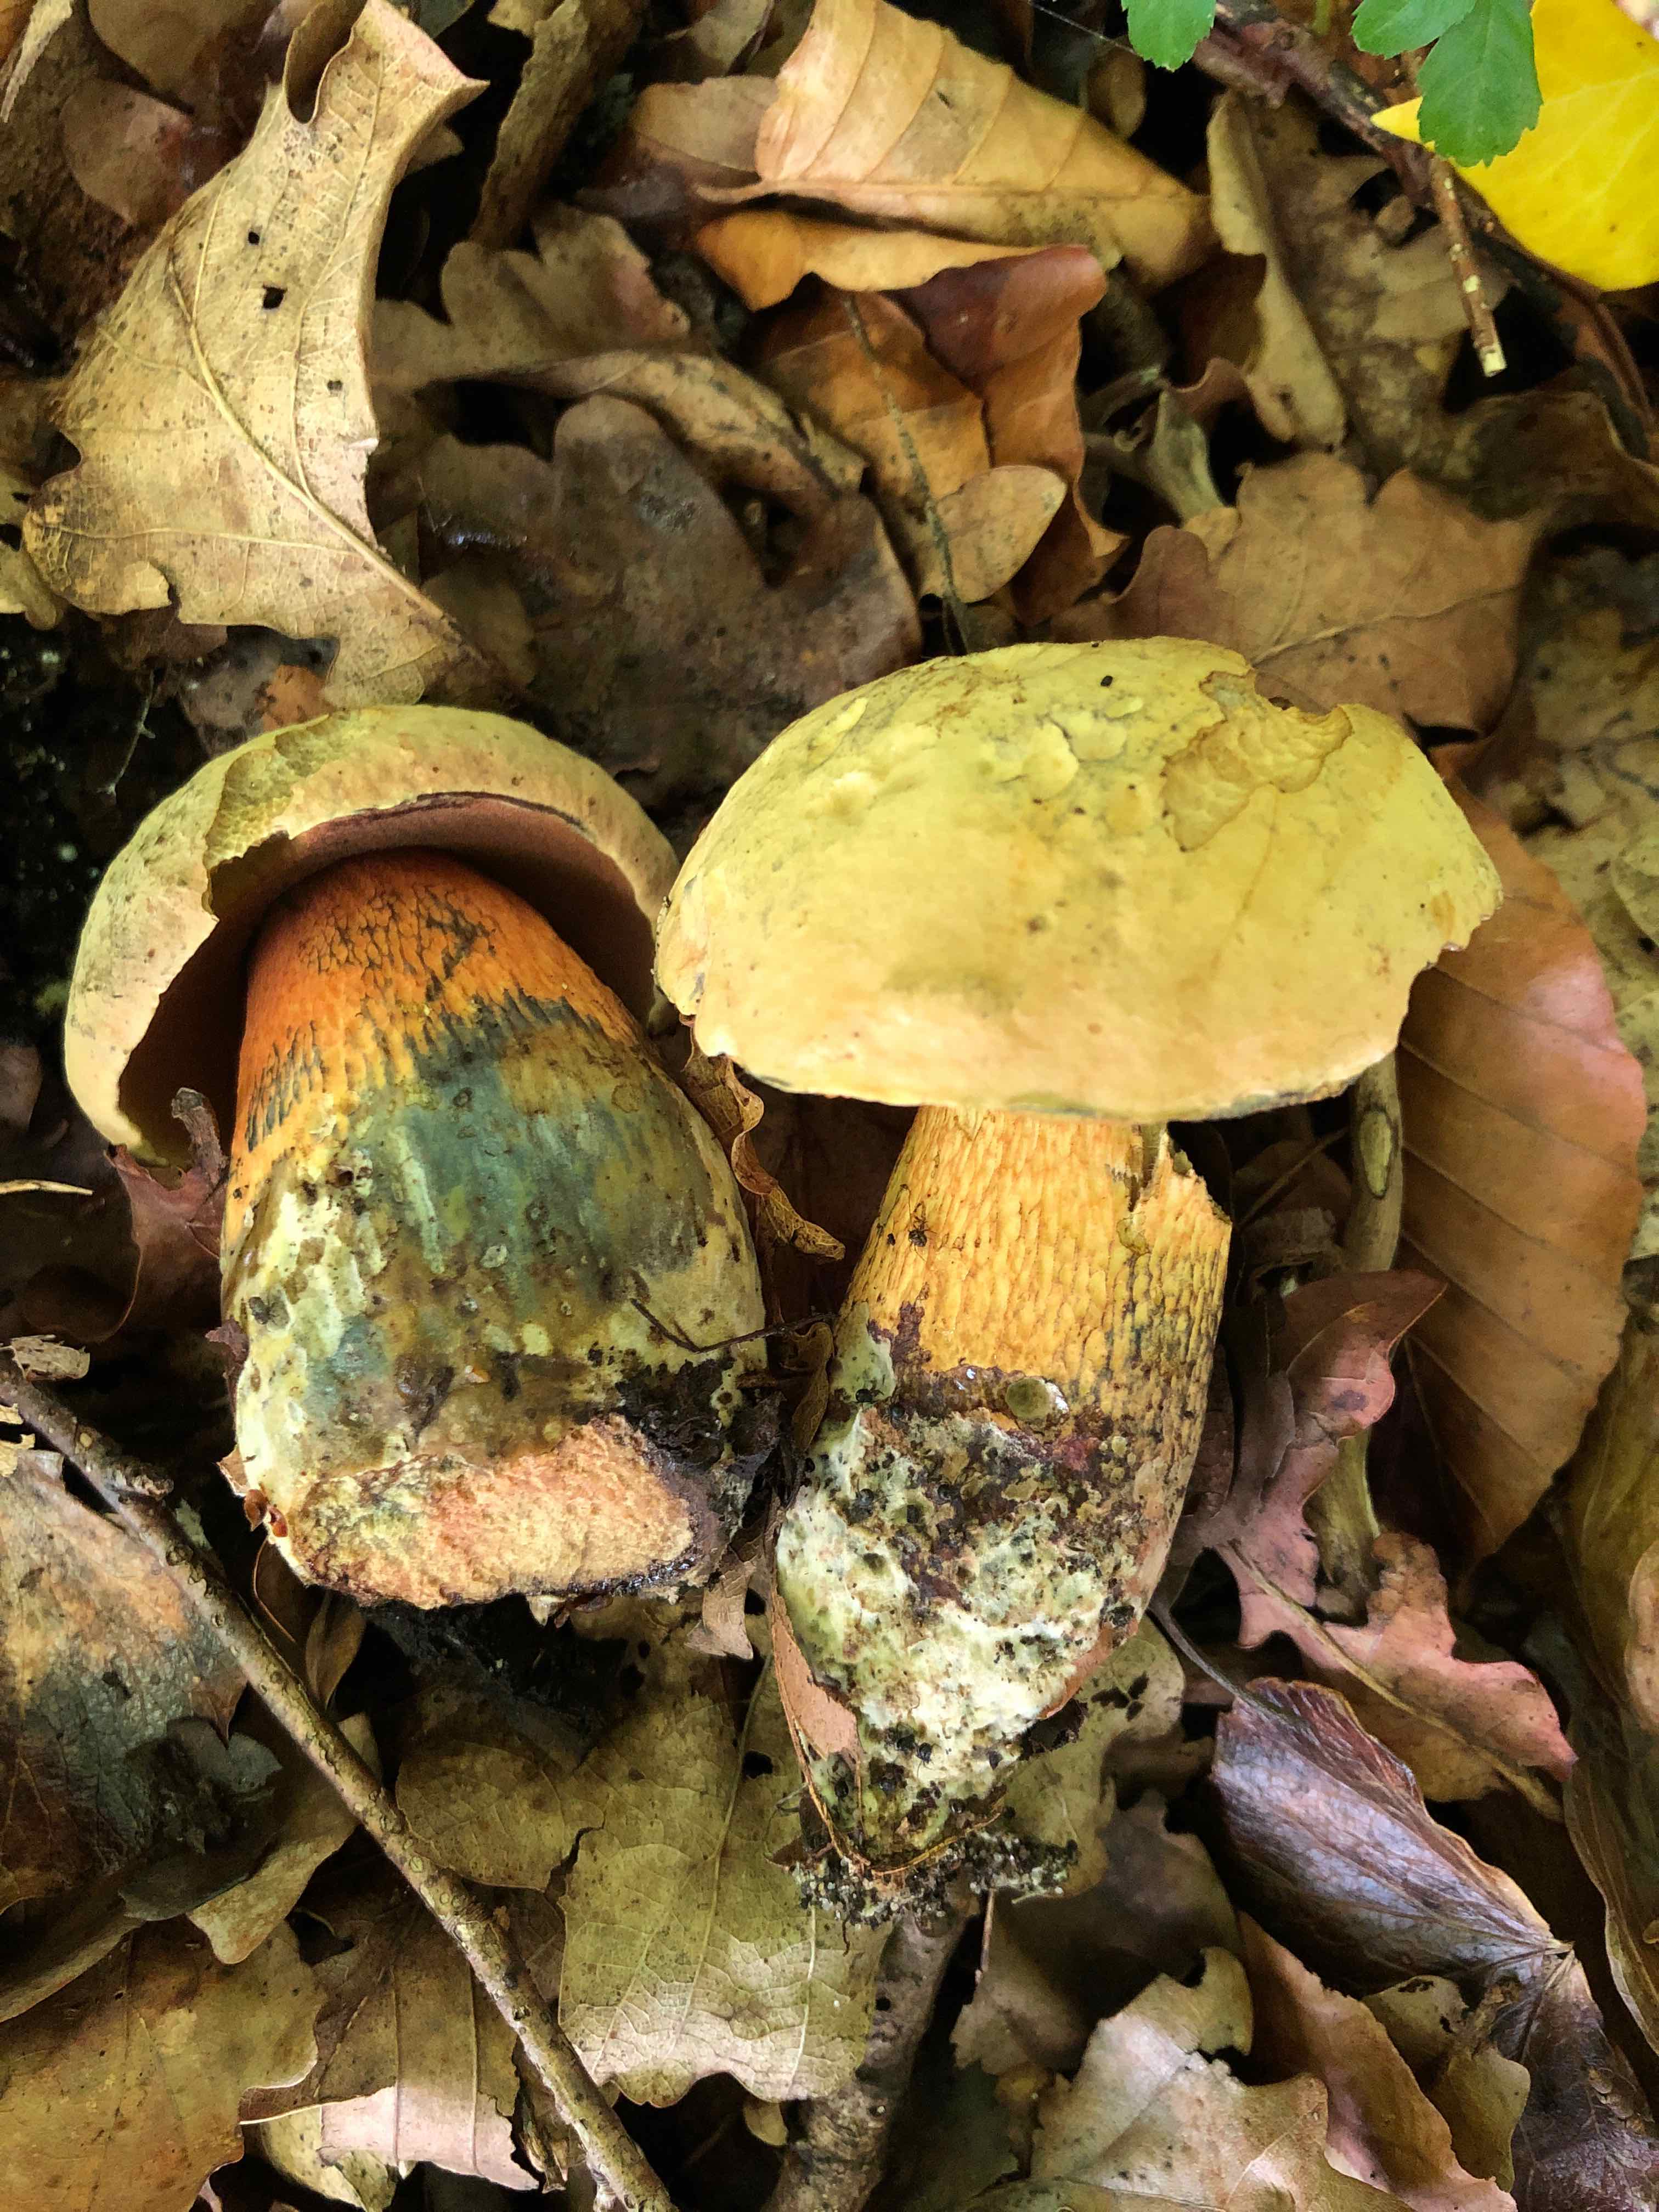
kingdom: Fungi
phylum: Basidiomycota
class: Agaricomycetes
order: Boletales
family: Boletaceae
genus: Suillellus
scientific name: Suillellus luridus
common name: netstokket indigorørhat
